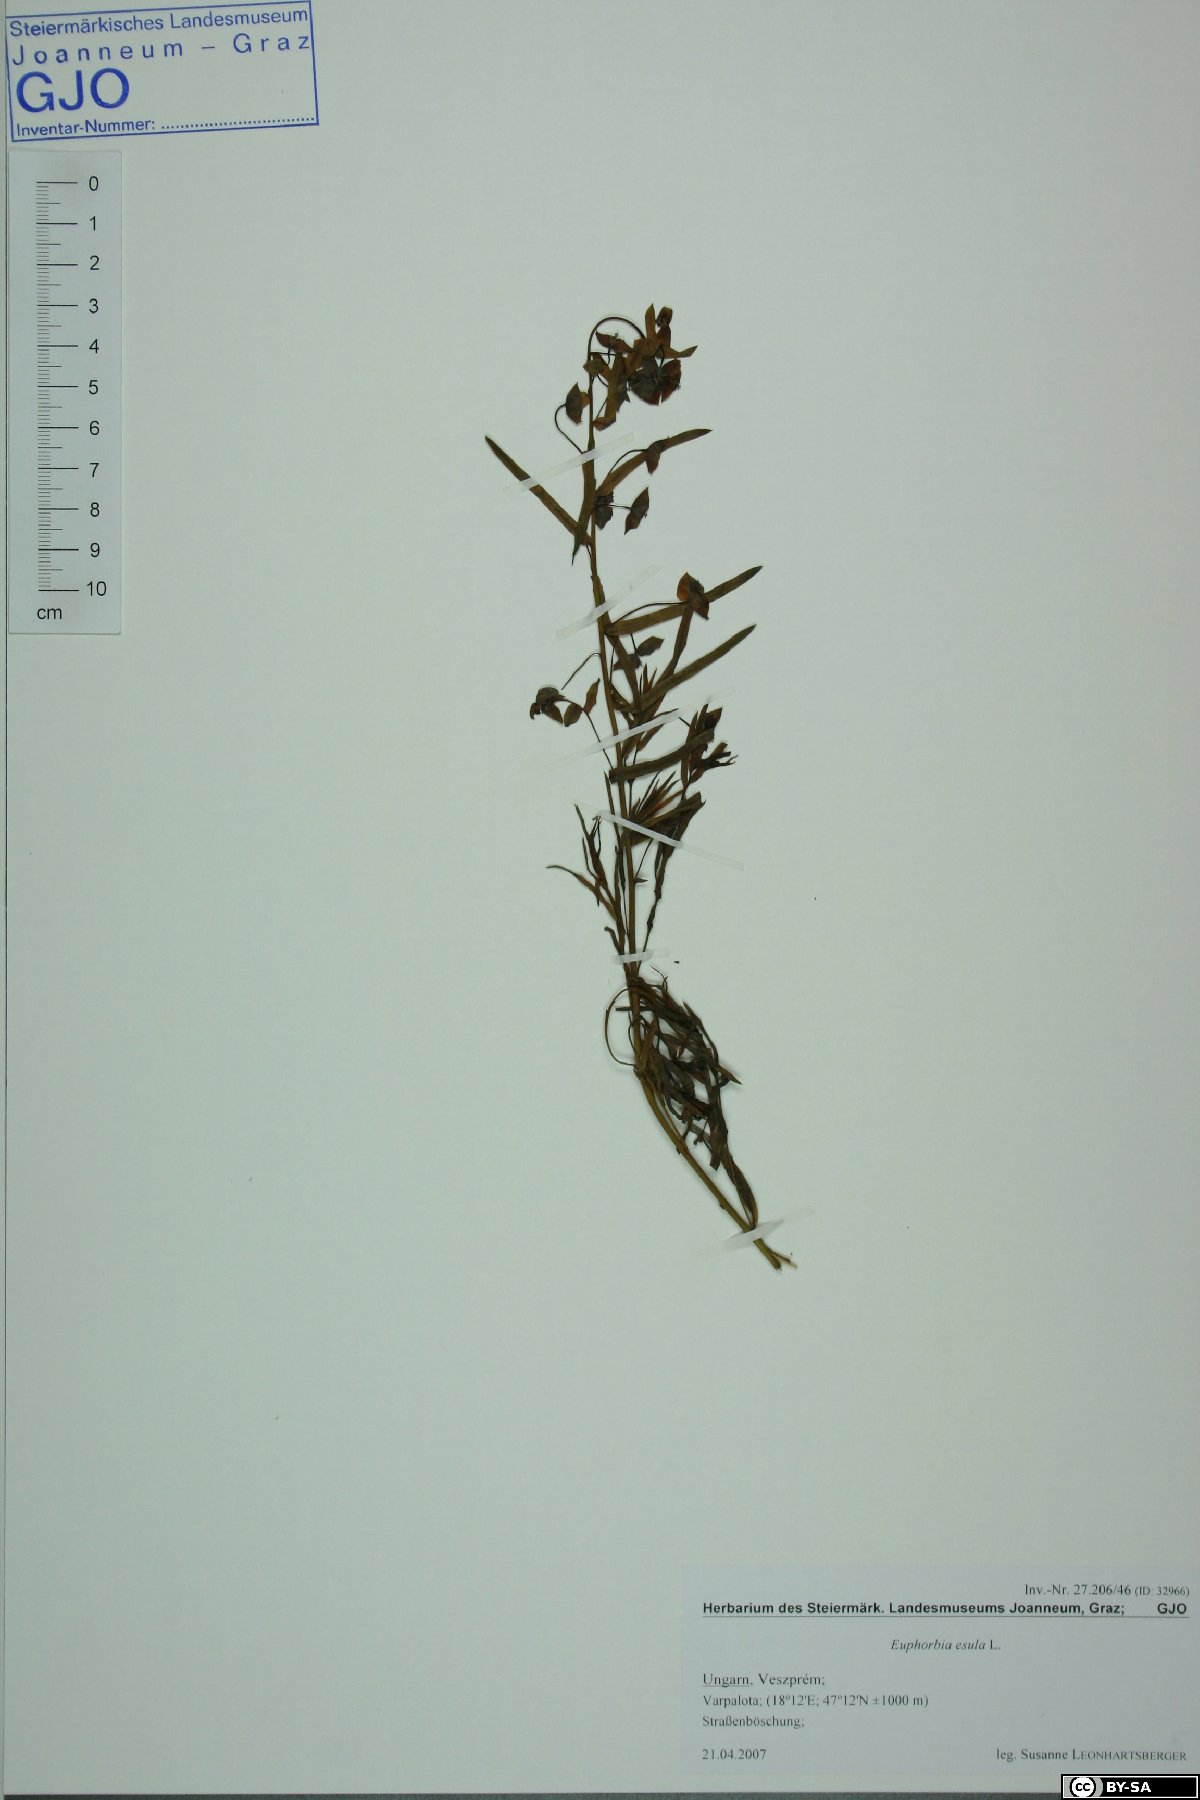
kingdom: Plantae
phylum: Tracheophyta
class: Magnoliopsida
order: Malpighiales
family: Euphorbiaceae
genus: Euphorbia
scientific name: Euphorbia esula
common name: Leafy spurge
